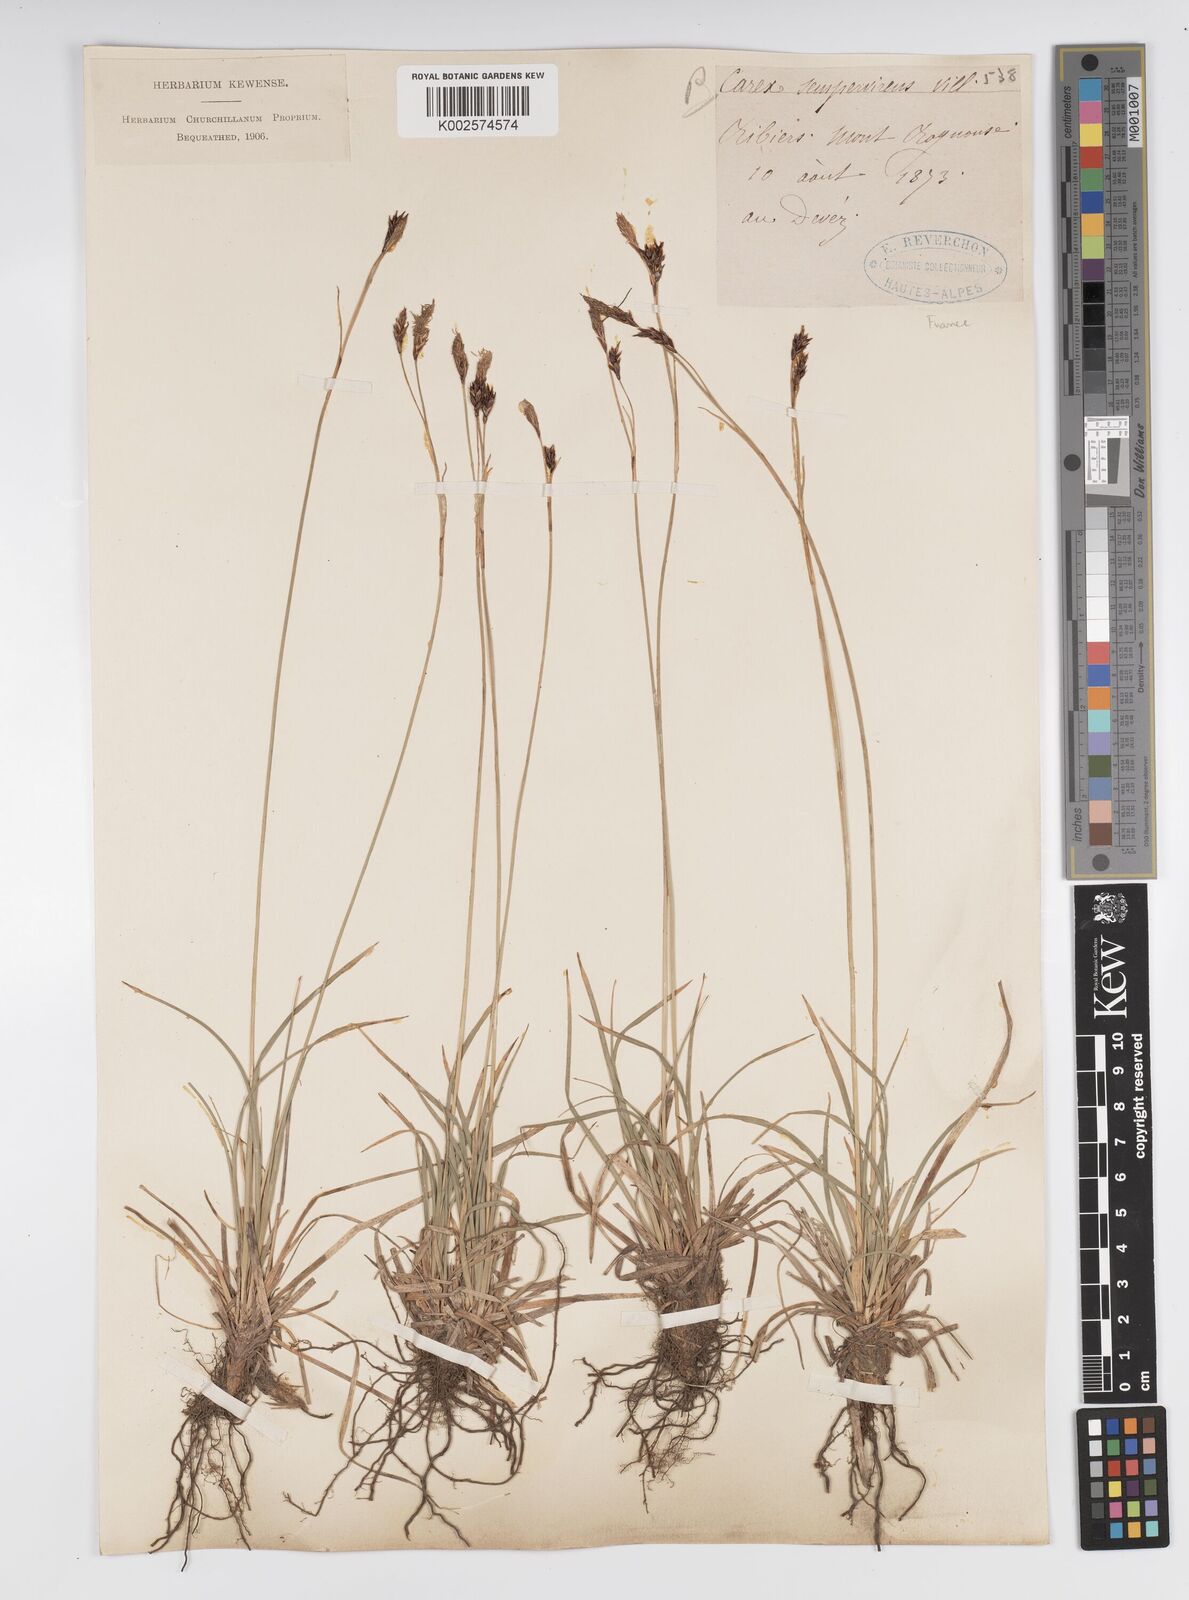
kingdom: Plantae
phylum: Tracheophyta
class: Liliopsida
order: Poales
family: Cyperaceae
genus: Carex
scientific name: Carex sempervirens
